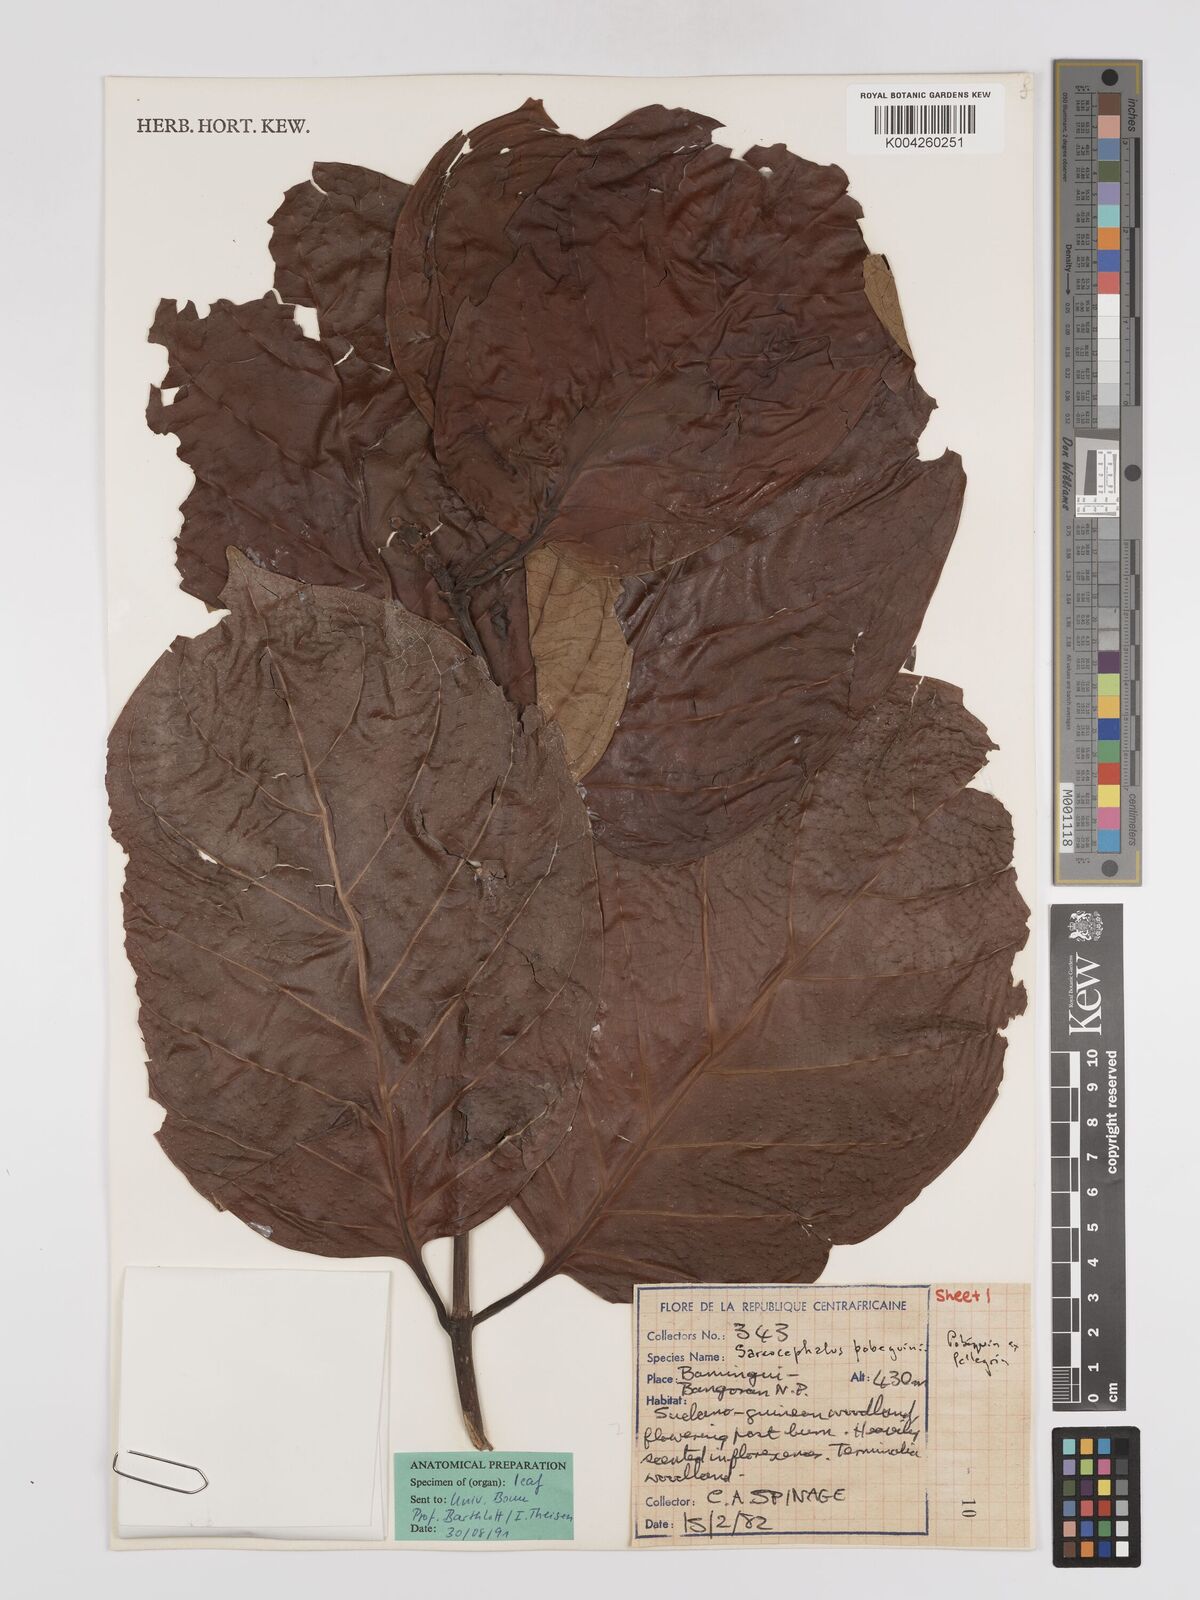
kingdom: Plantae
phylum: Tracheophyta
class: Magnoliopsida
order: Gentianales
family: Rubiaceae
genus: Nauclea
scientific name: Nauclea pobeguinii
